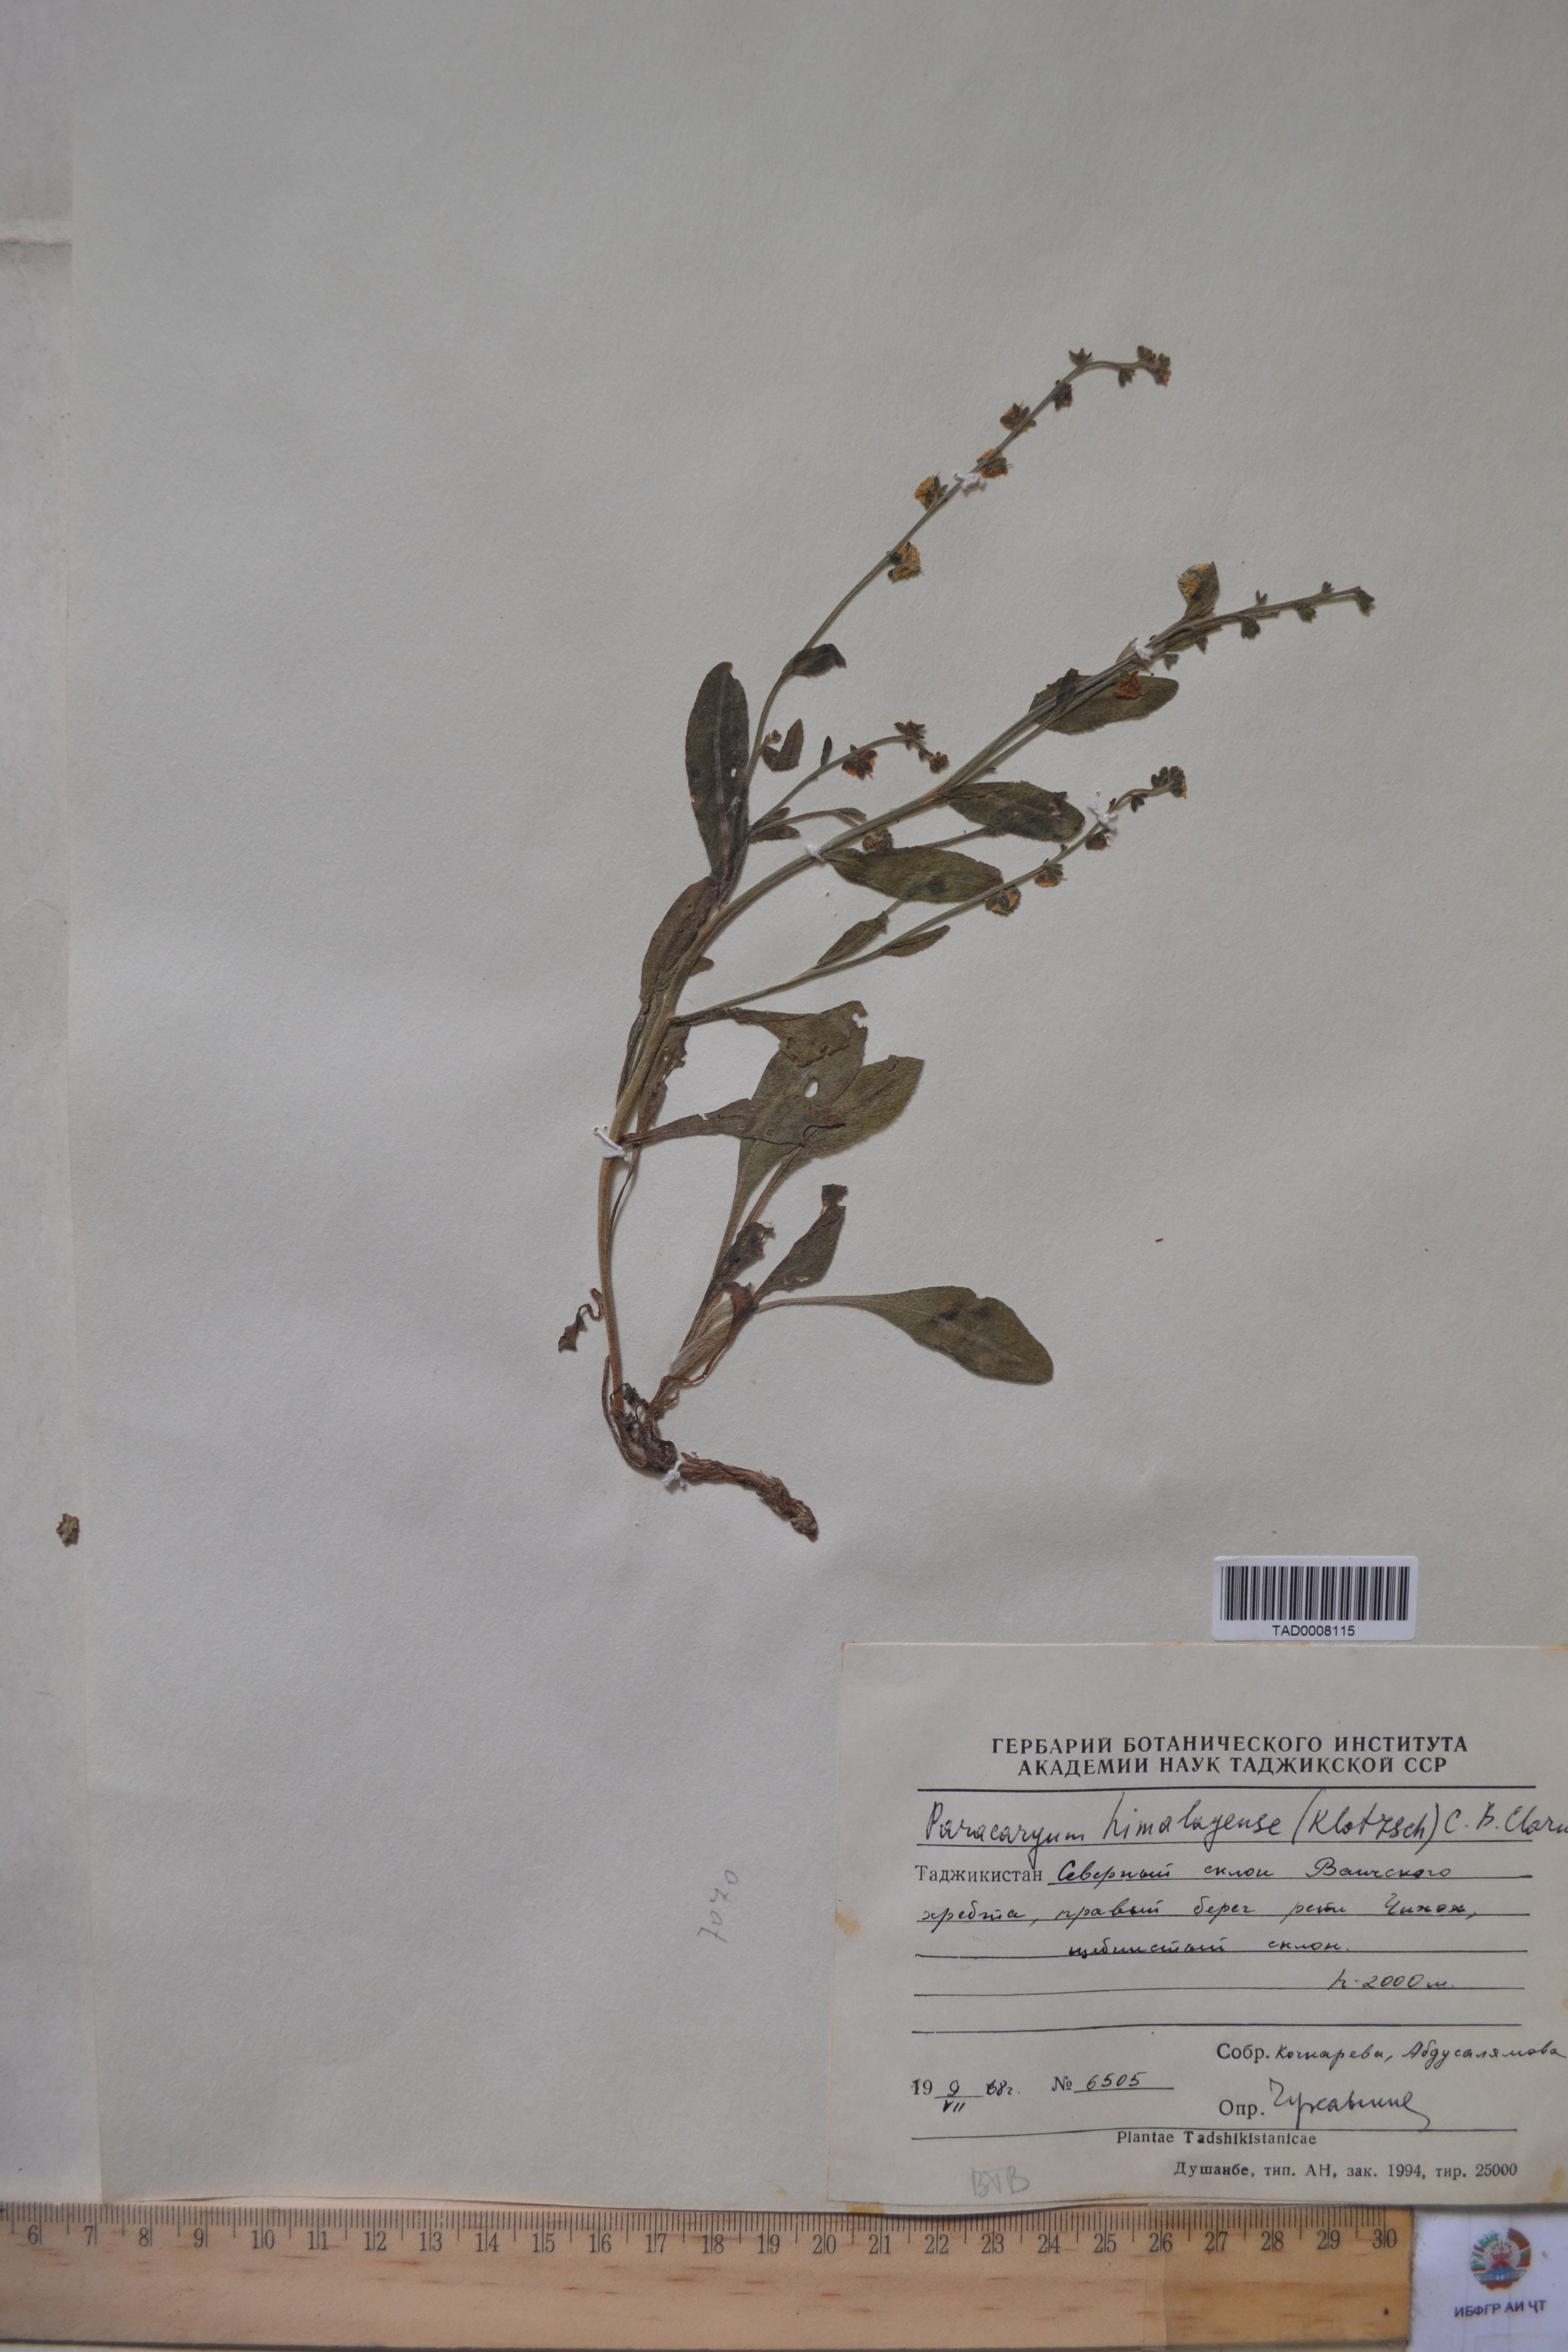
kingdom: Plantae
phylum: Tracheophyta
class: Magnoliopsida
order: Boraginales
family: Boraginaceae
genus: Paracaryum
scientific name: Paracaryum himalayense
